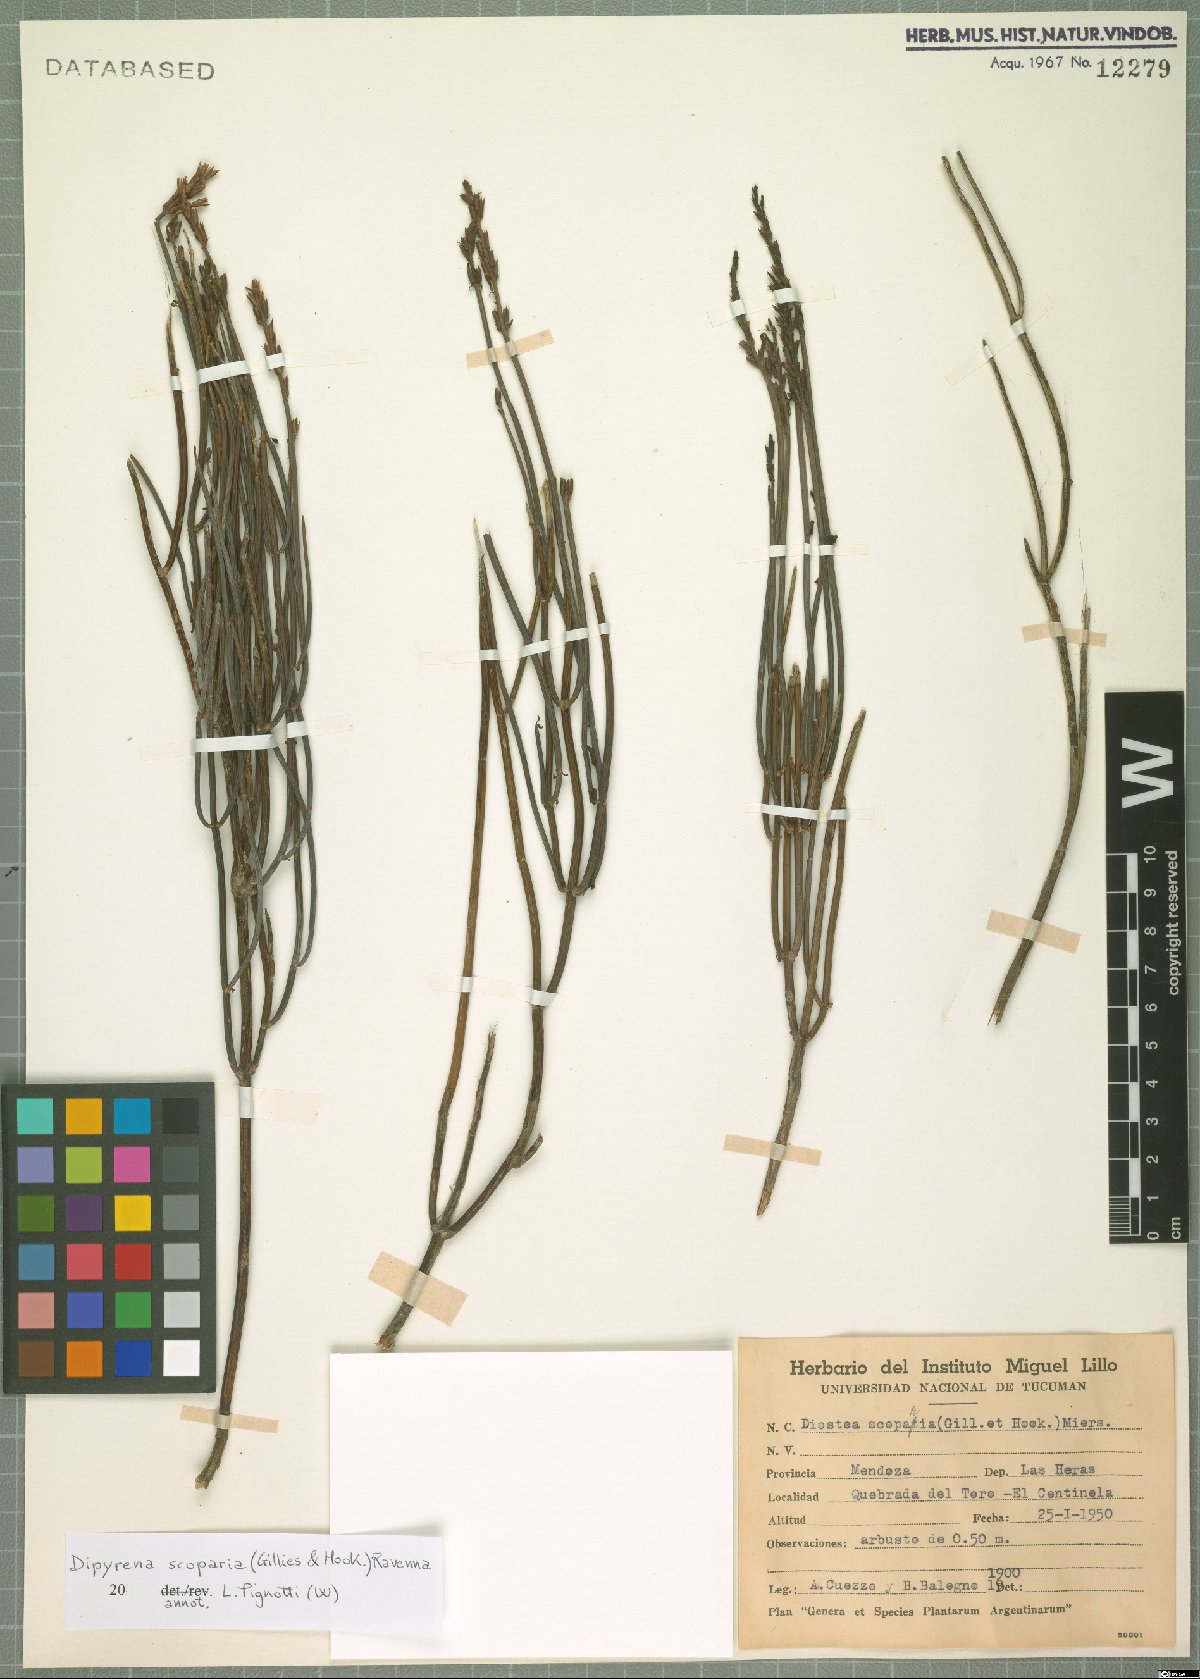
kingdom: Plantae
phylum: Tracheophyta
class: Magnoliopsida
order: Lamiales
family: Verbenaceae
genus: Mulguraea
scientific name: Mulguraea scoparia
